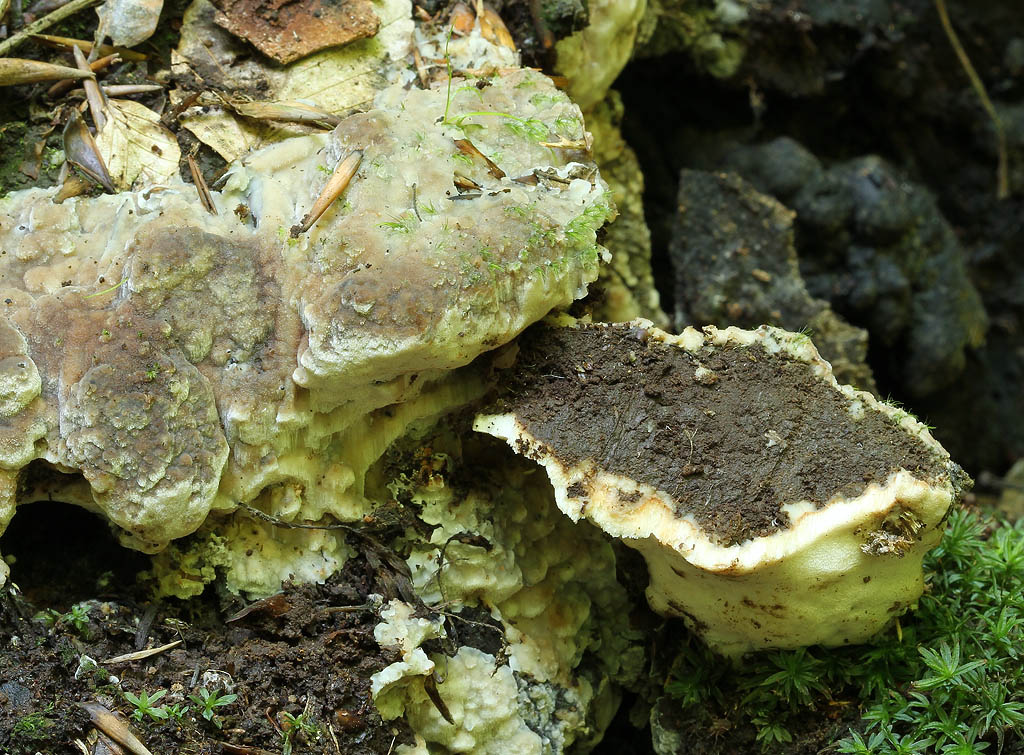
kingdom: Fungi
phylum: Basidiomycota
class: Agaricomycetes
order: Polyporales
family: Meruliaceae
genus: Physisporinus
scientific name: Physisporinus vitreus
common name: mastesvamp
